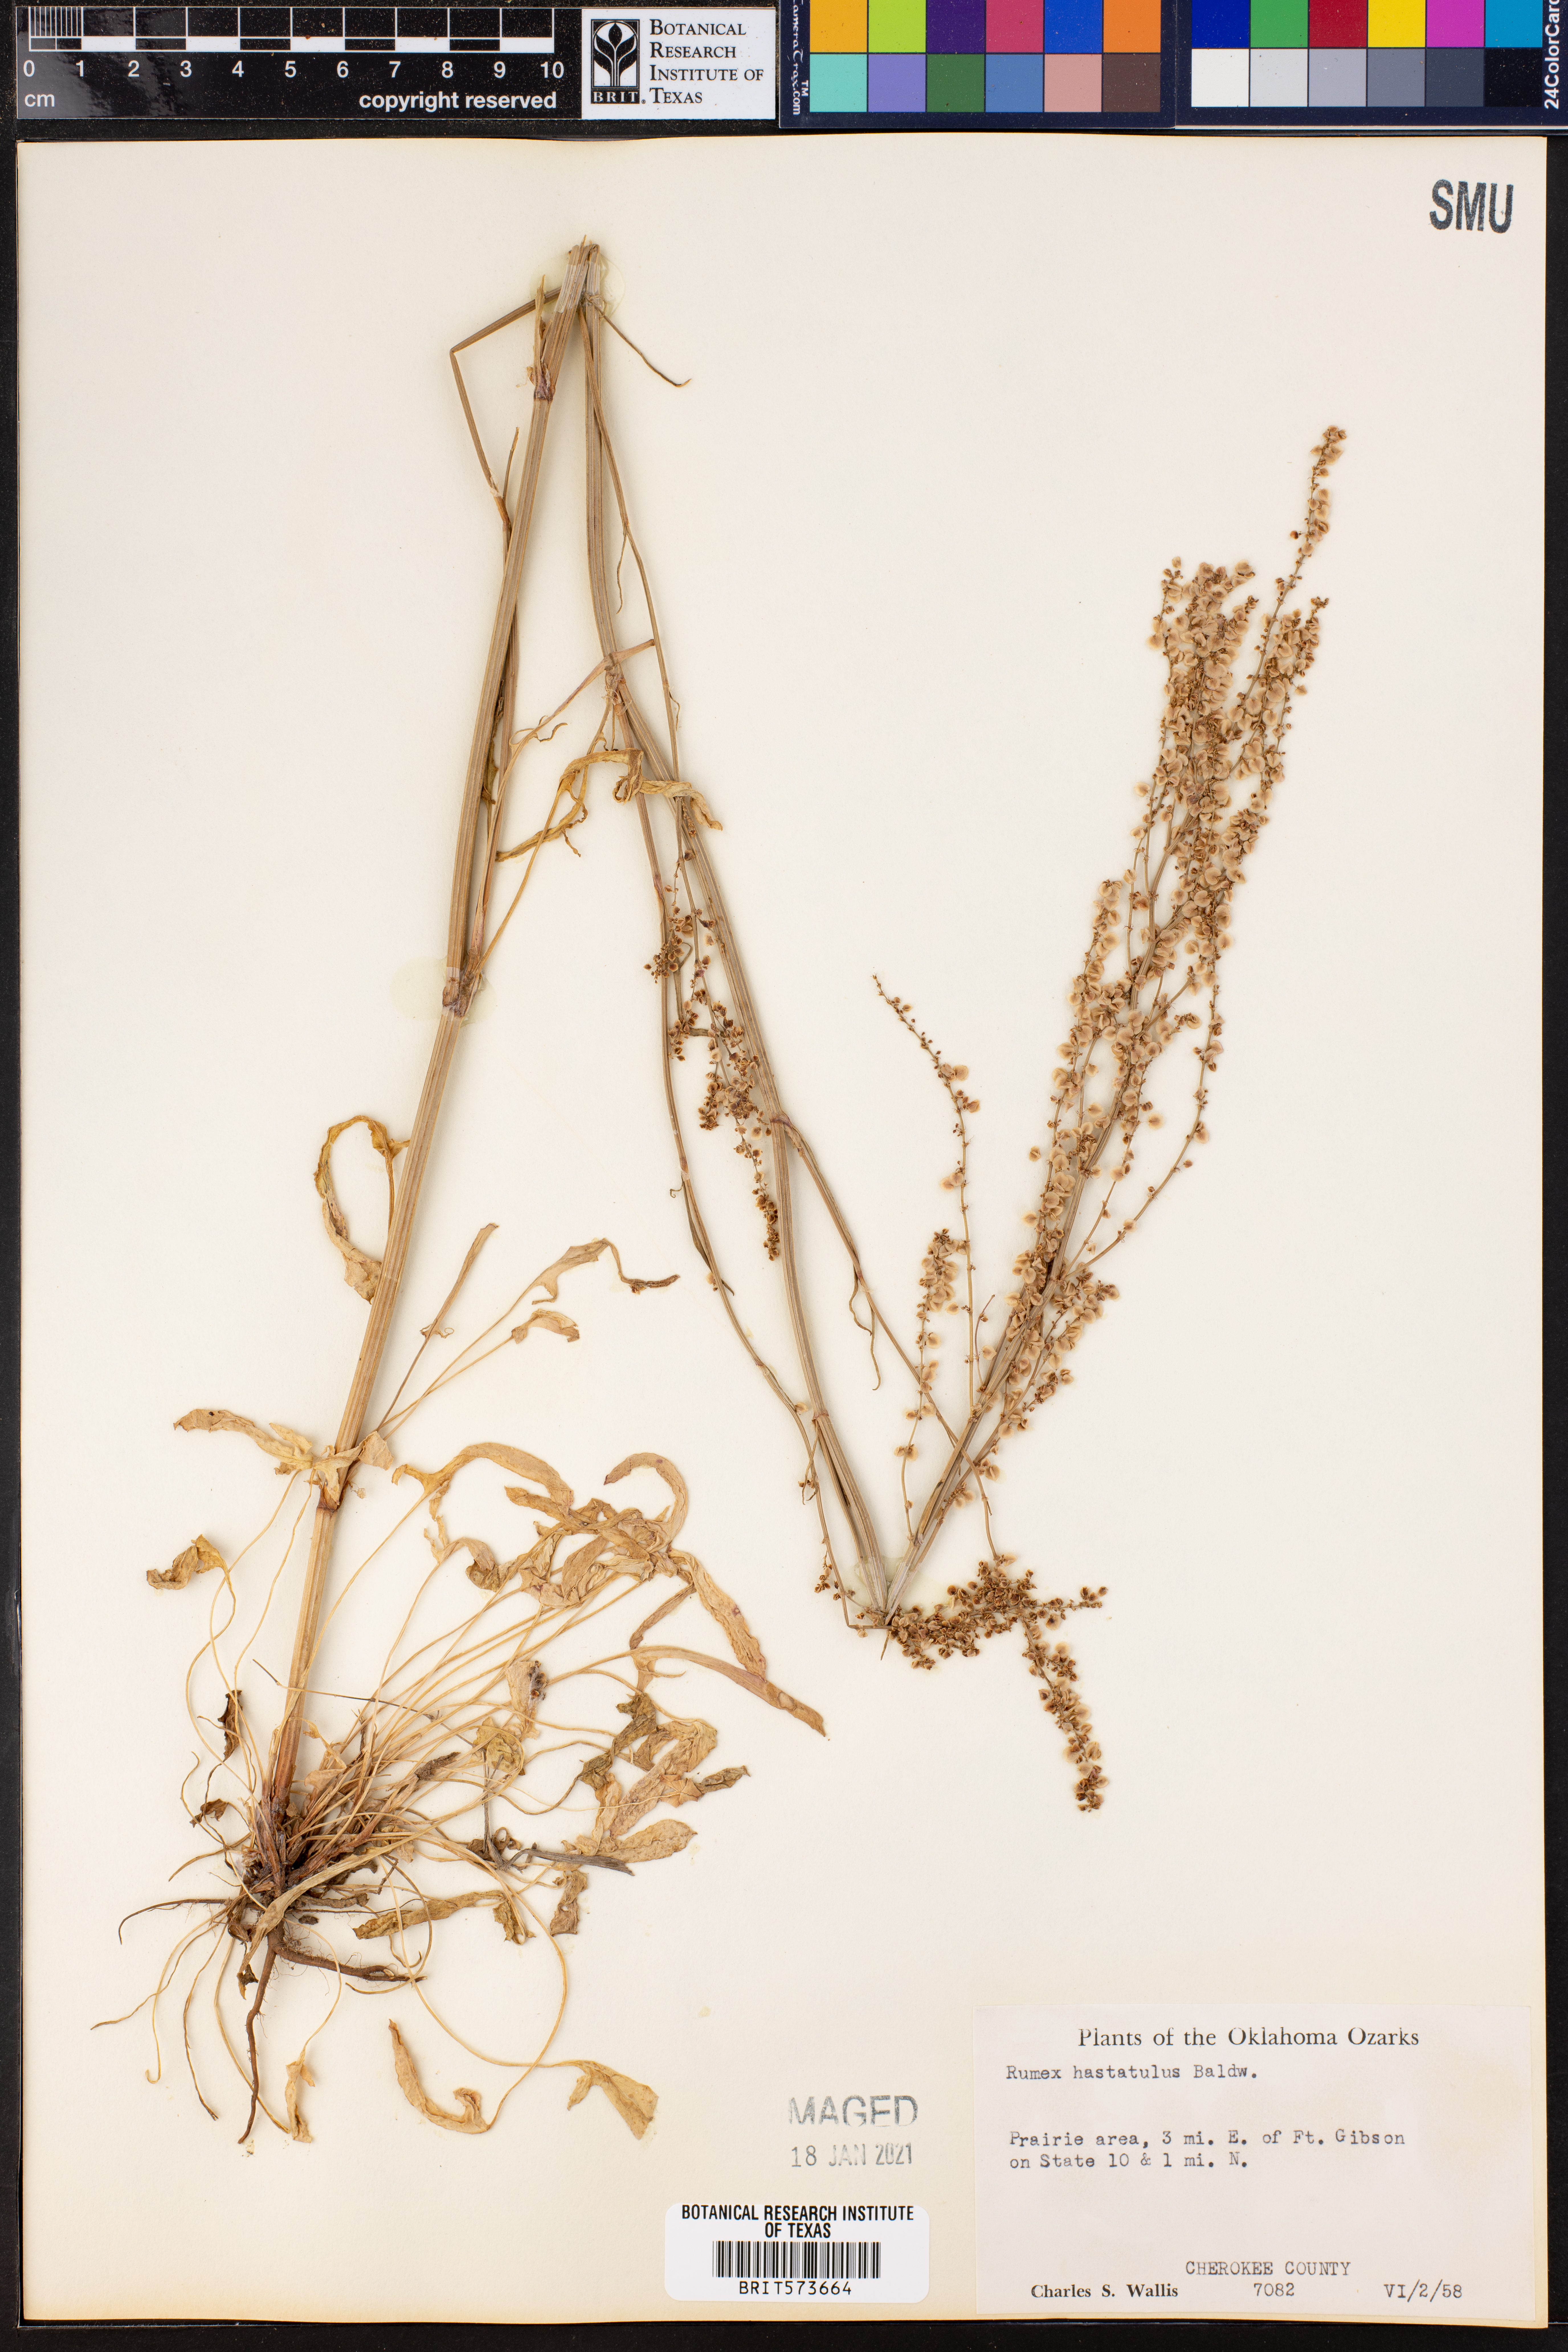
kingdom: Plantae
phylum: Tracheophyta
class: Magnoliopsida
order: Caryophyllales
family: Polygonaceae
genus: Rumex
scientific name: Rumex hastatulus
